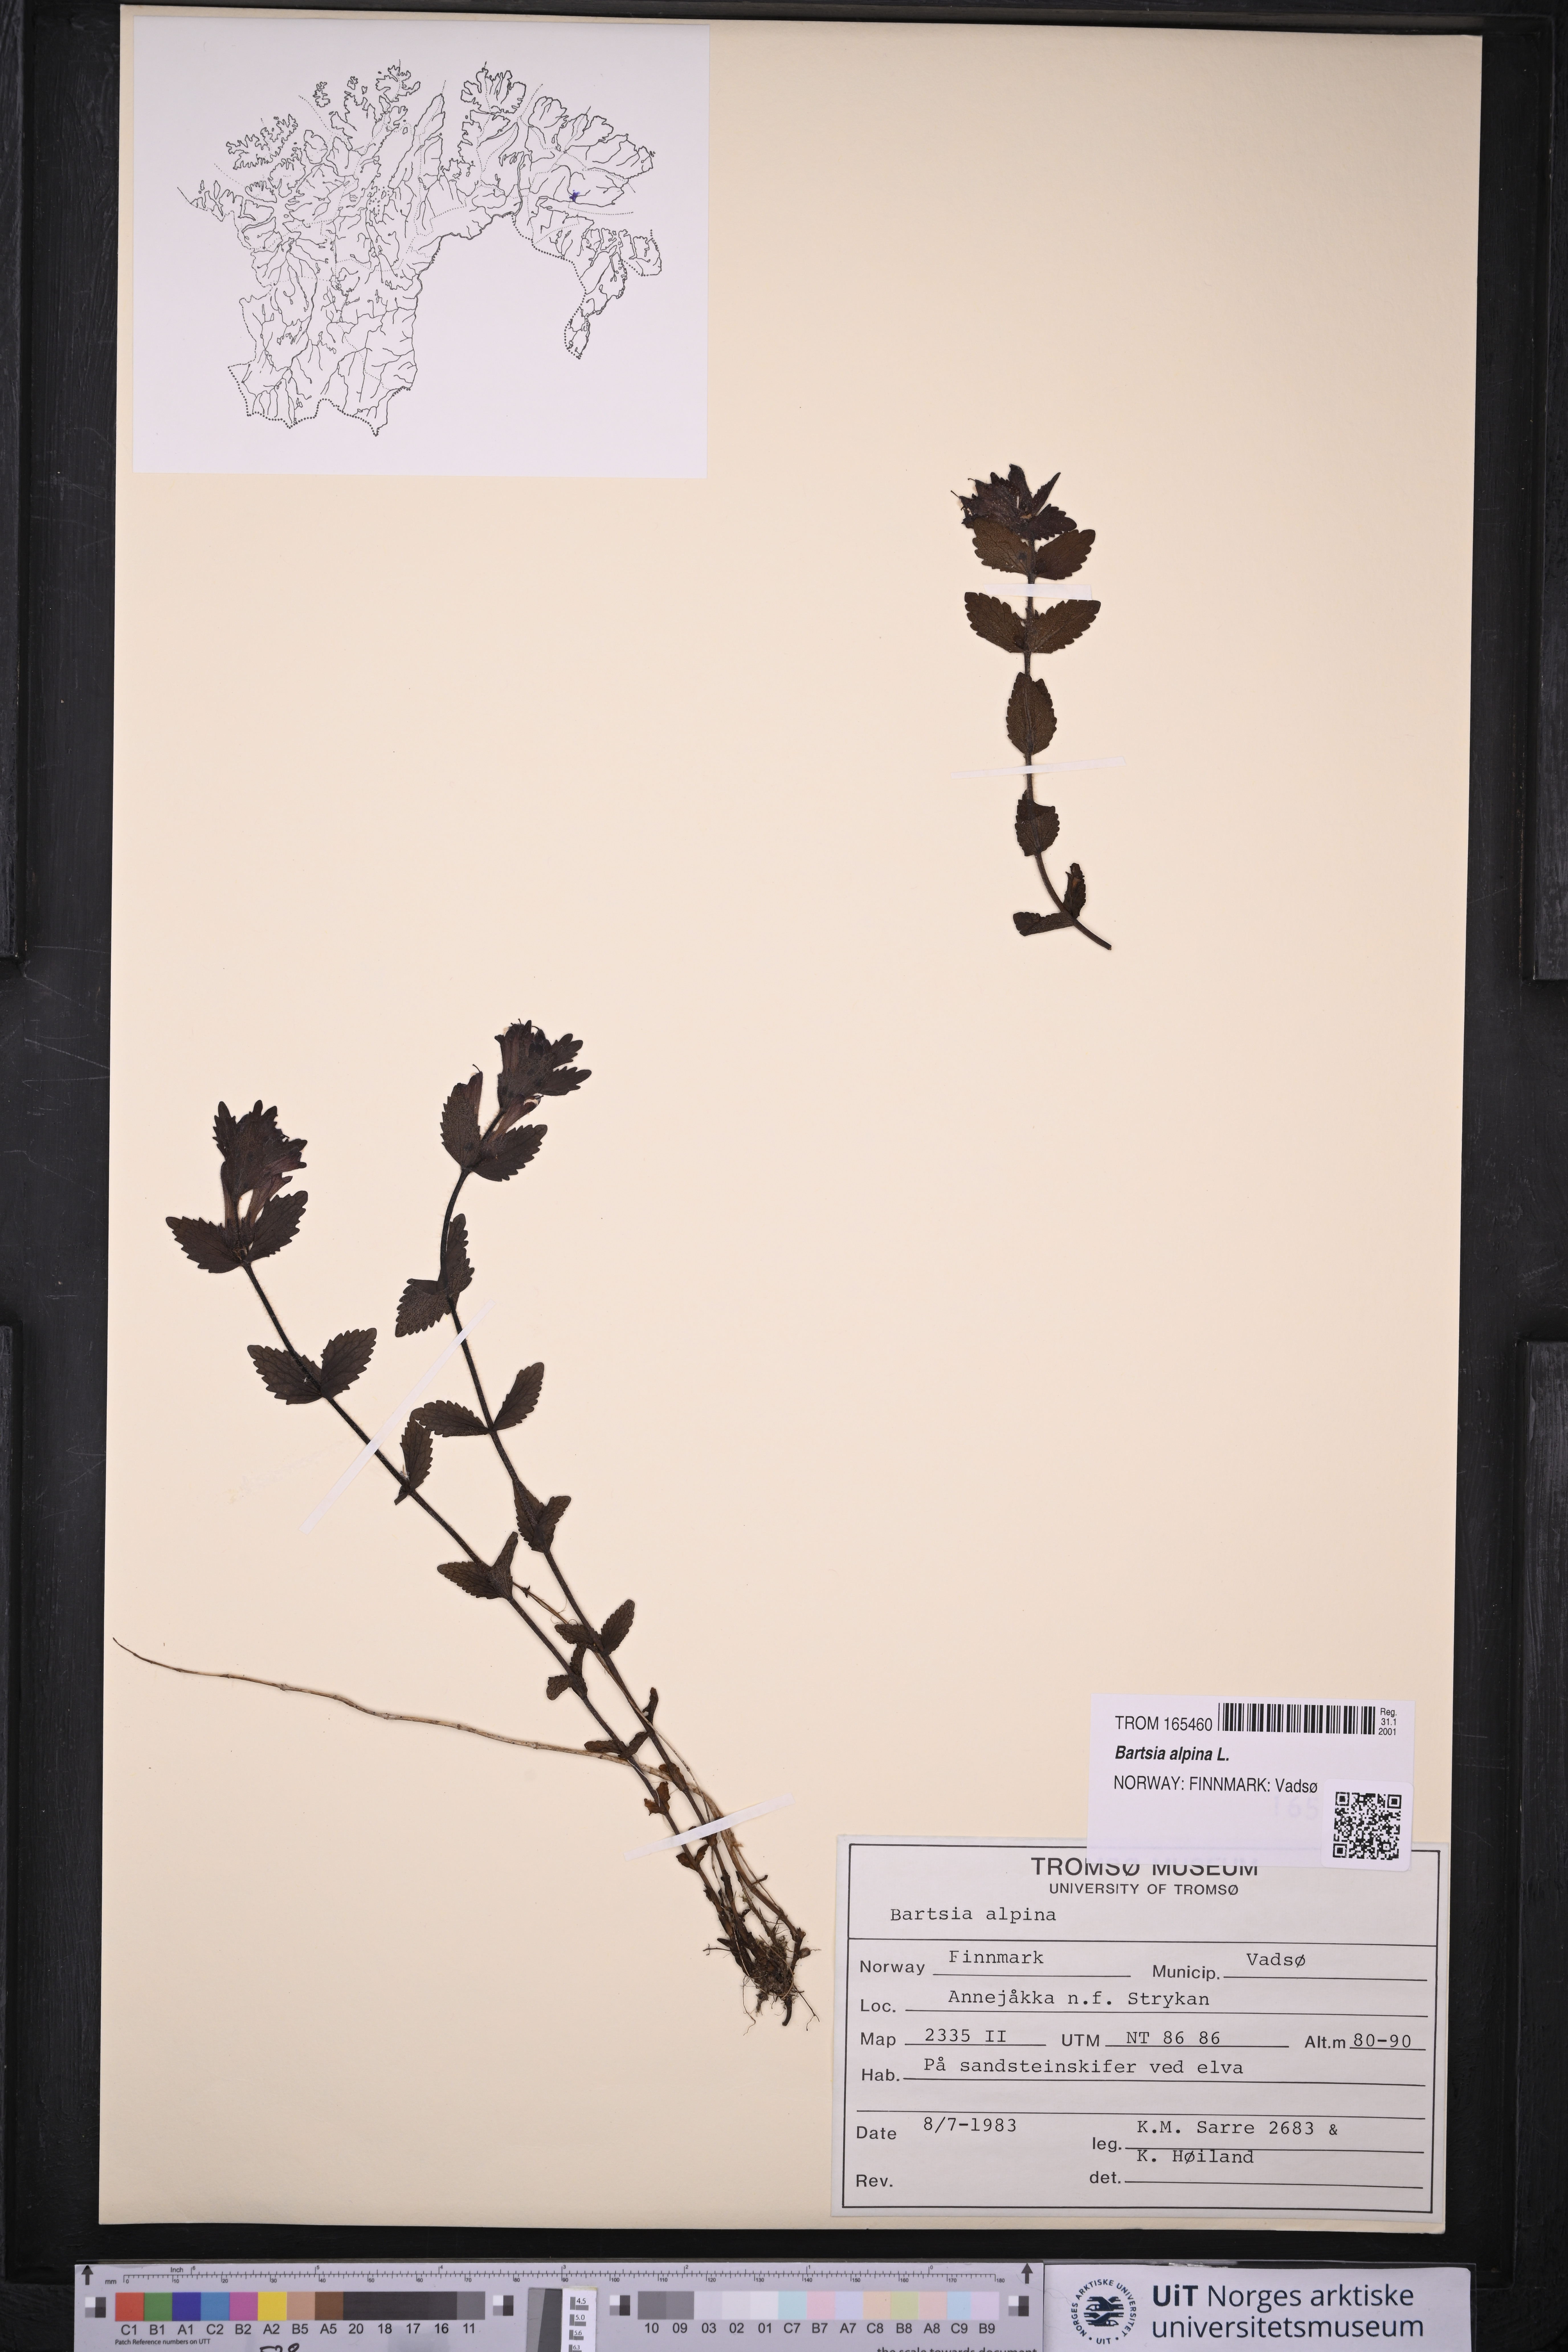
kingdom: Plantae
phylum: Tracheophyta
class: Magnoliopsida
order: Lamiales
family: Orobanchaceae
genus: Bartsia
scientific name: Bartsia alpina
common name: Alpine bartsia
